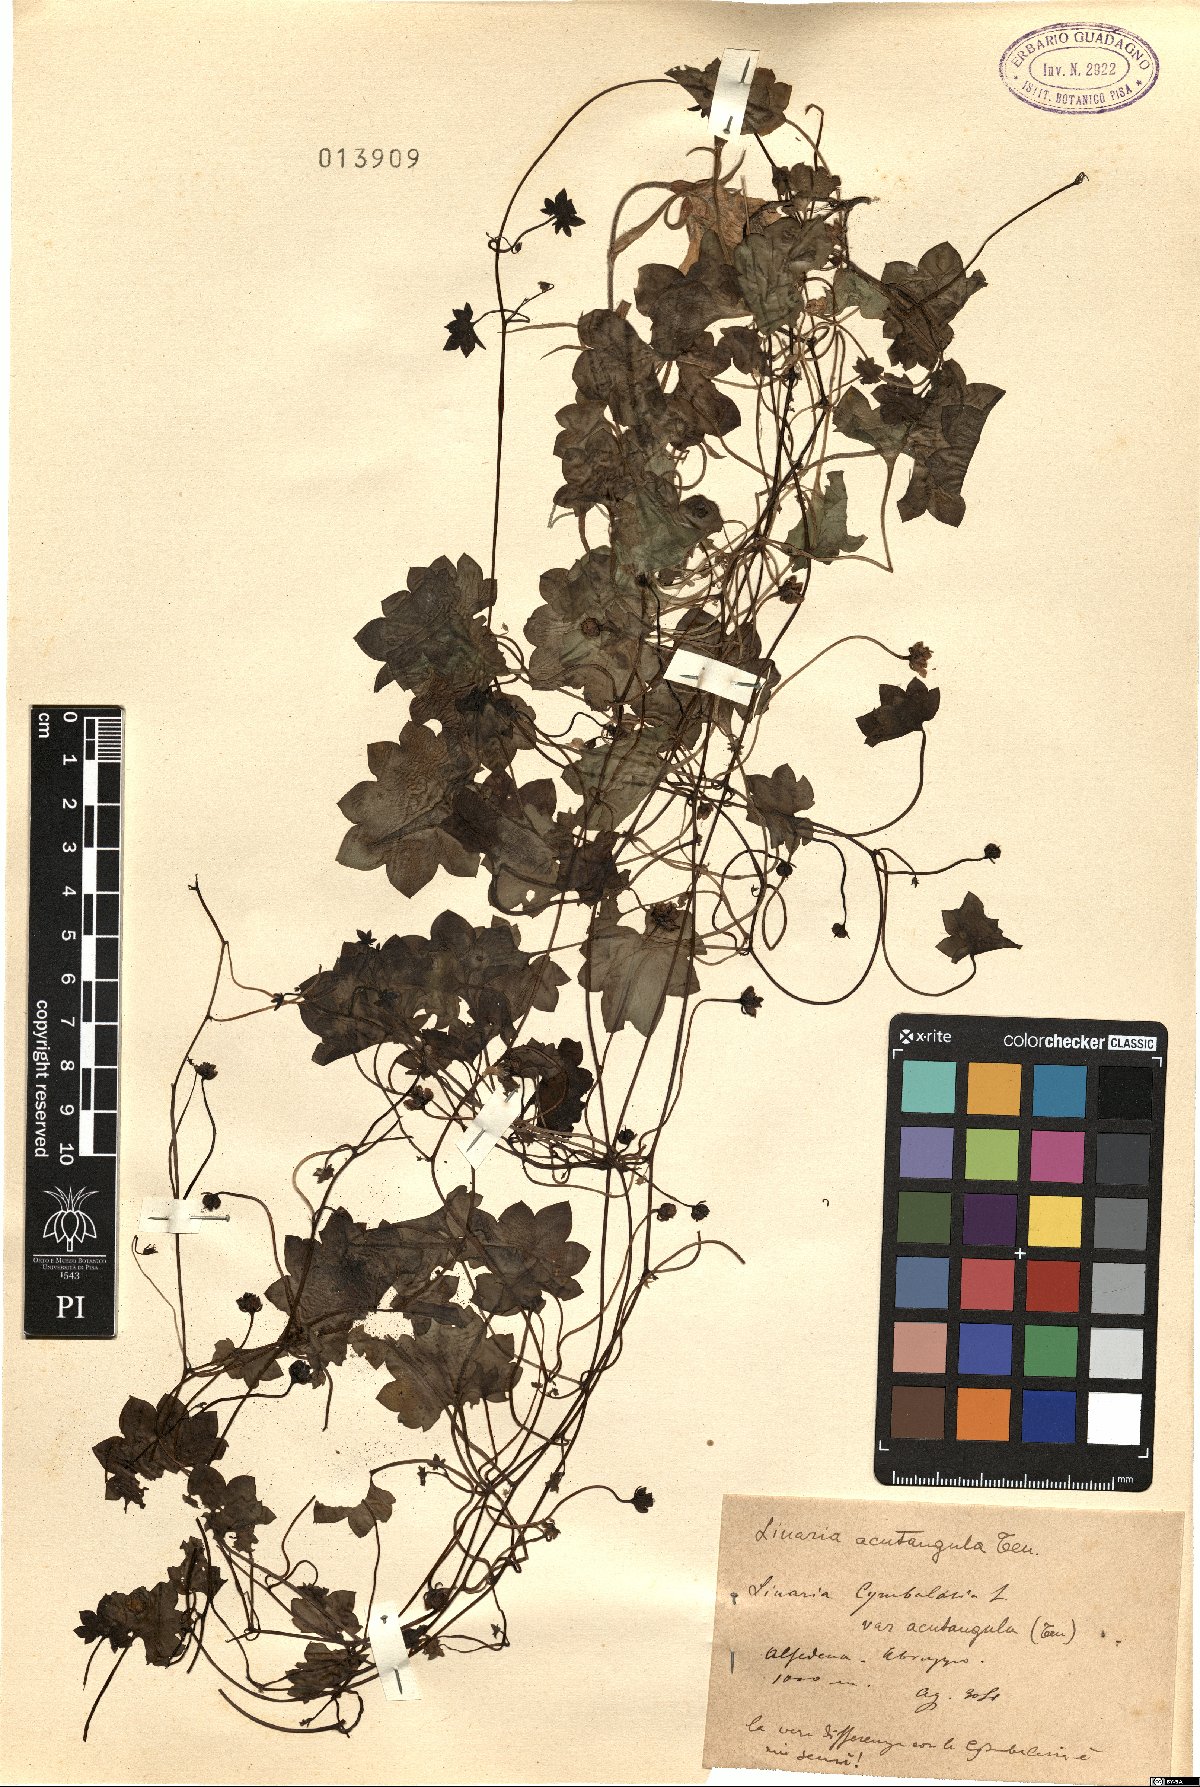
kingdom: Plantae
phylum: Tracheophyta
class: Magnoliopsida
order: Lamiales
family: Plantaginaceae
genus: Cymbalaria
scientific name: Cymbalaria muralis
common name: Ivy-leaved toadflax
